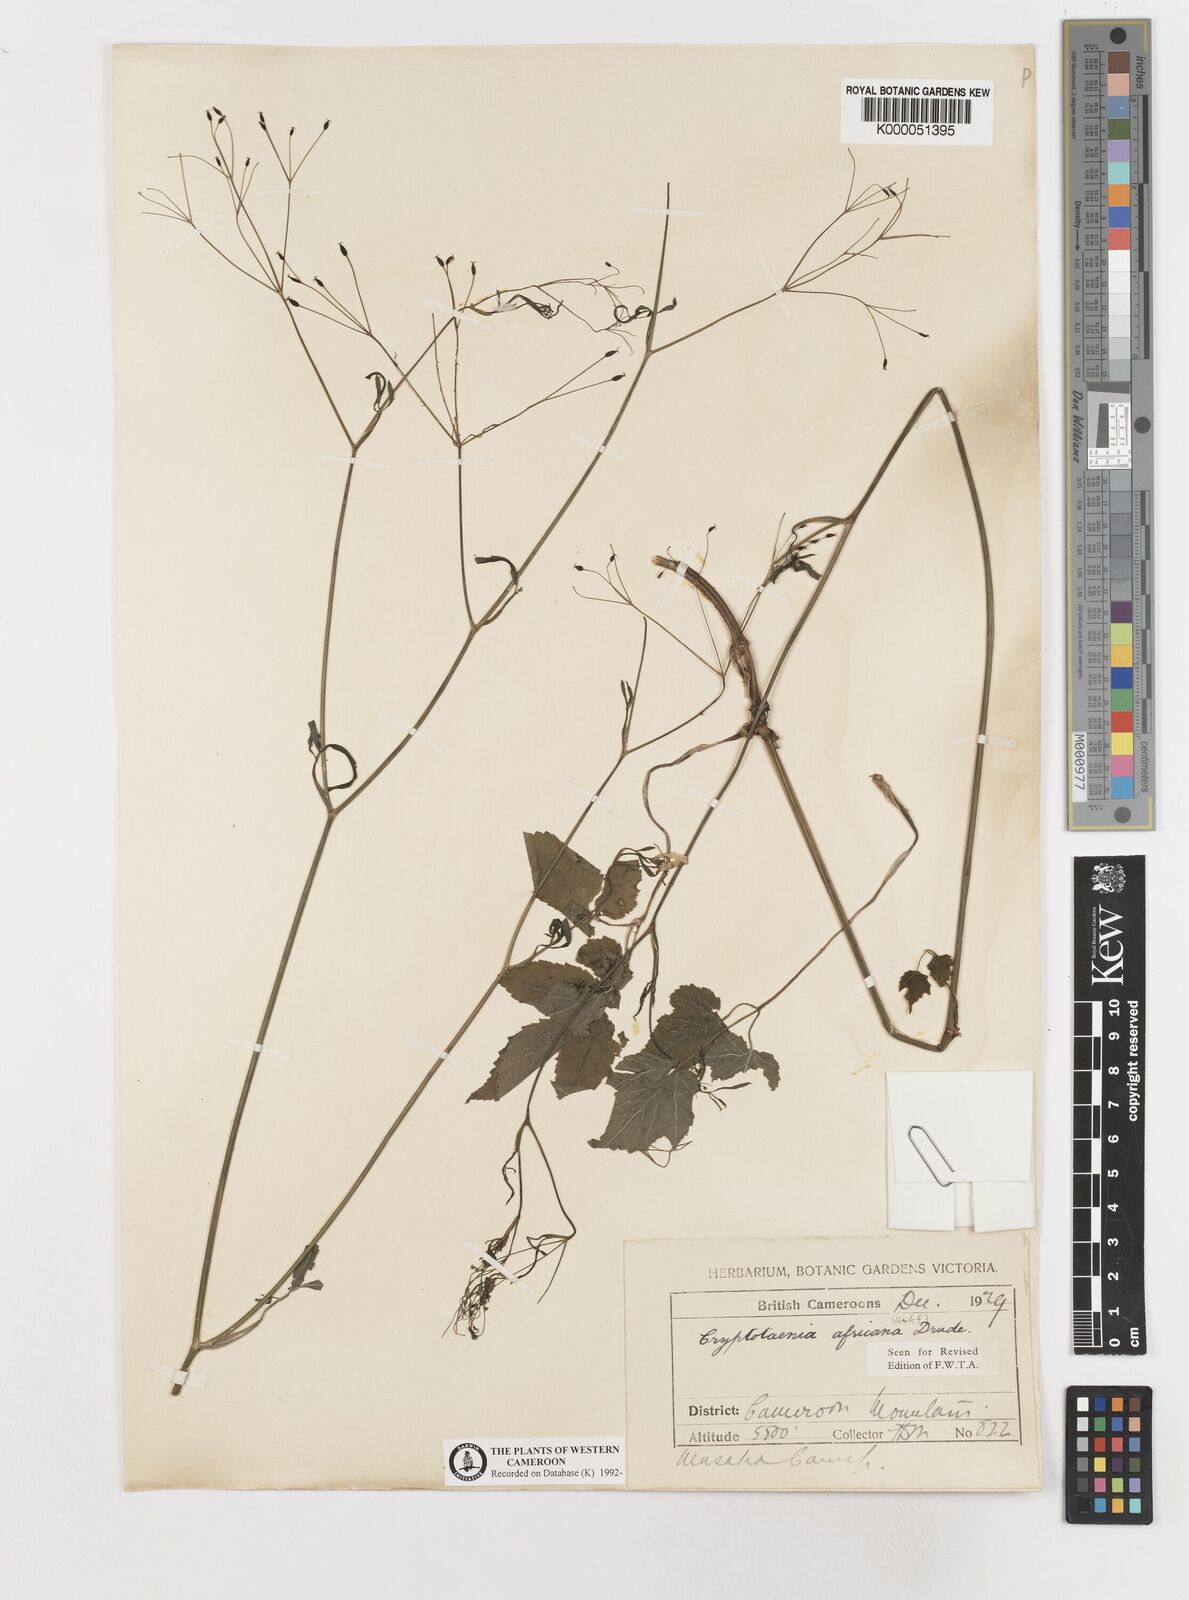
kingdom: Plantae
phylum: Tracheophyta
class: Magnoliopsida
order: Apiales
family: Apiaceae
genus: Cryptotaenia
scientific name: Cryptotaenia africana
